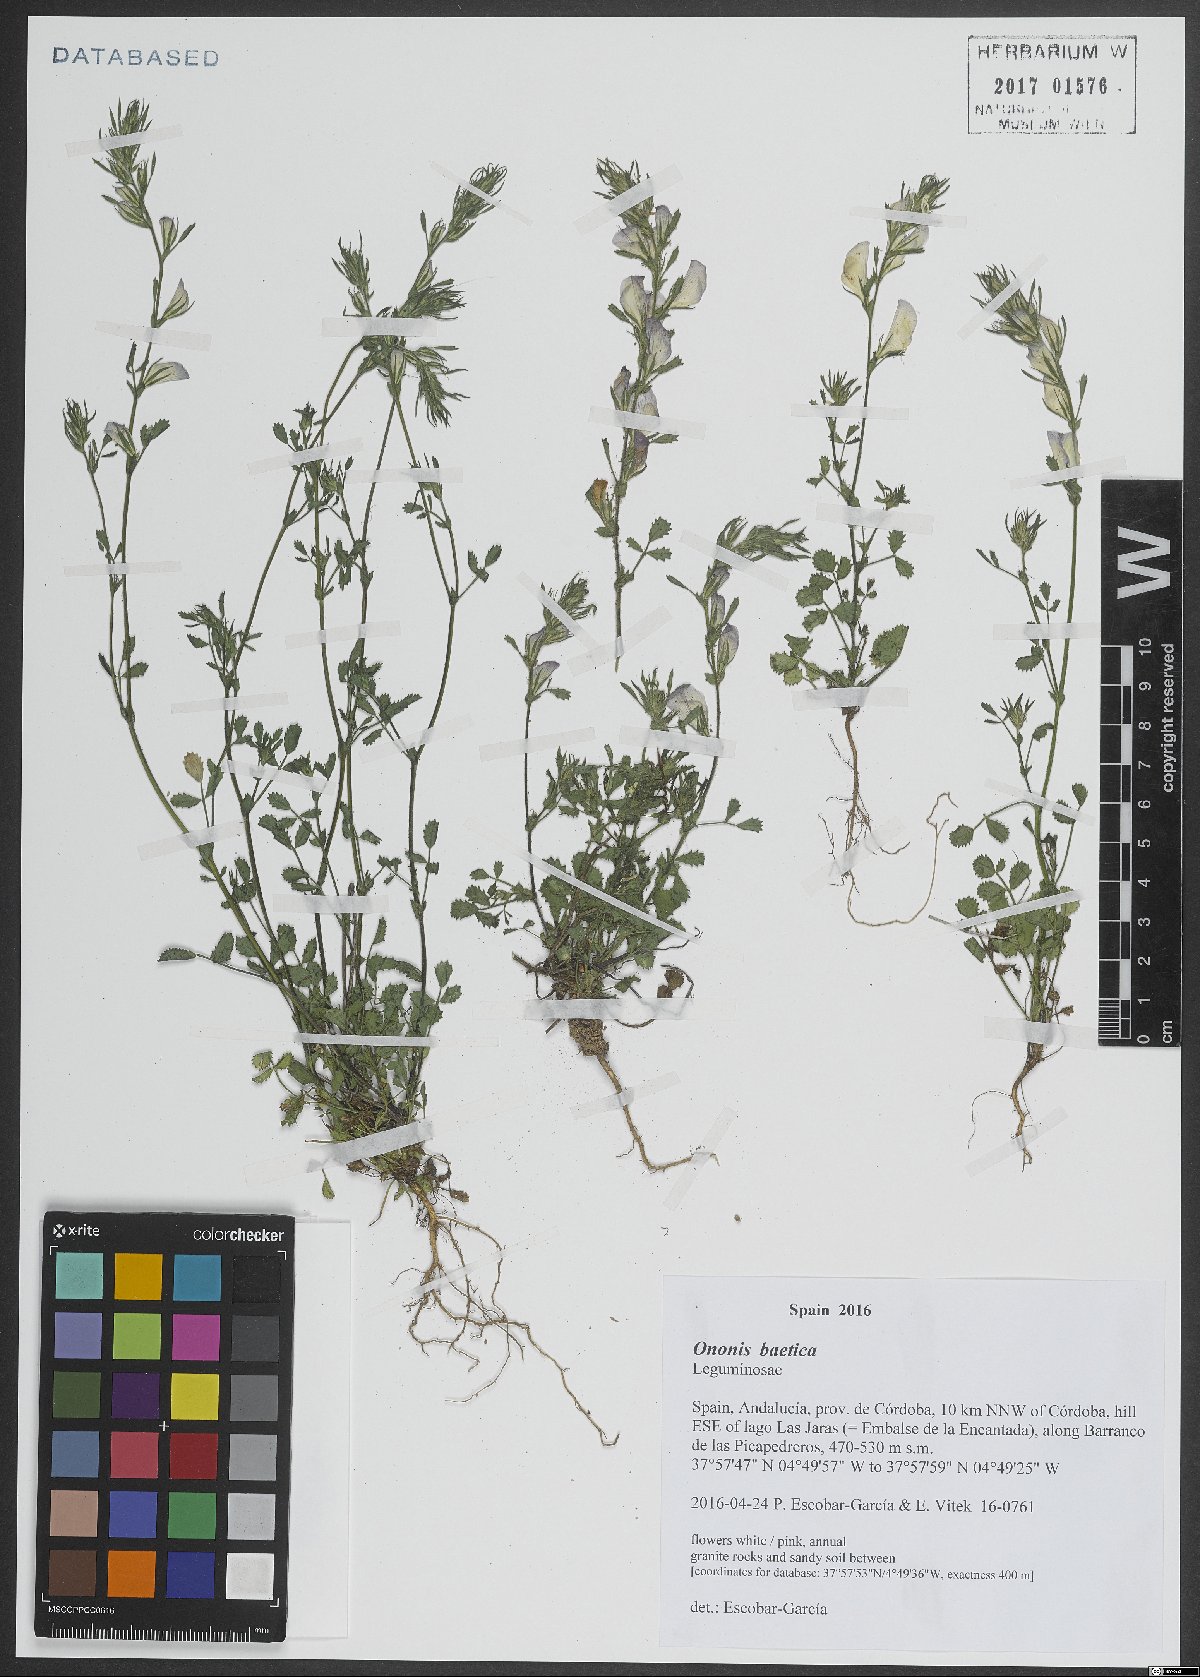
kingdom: Plantae
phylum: Tracheophyta
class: Magnoliopsida
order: Fabales
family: Fabaceae
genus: Ononis
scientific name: Ononis baetica
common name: Andalucian restharrow
